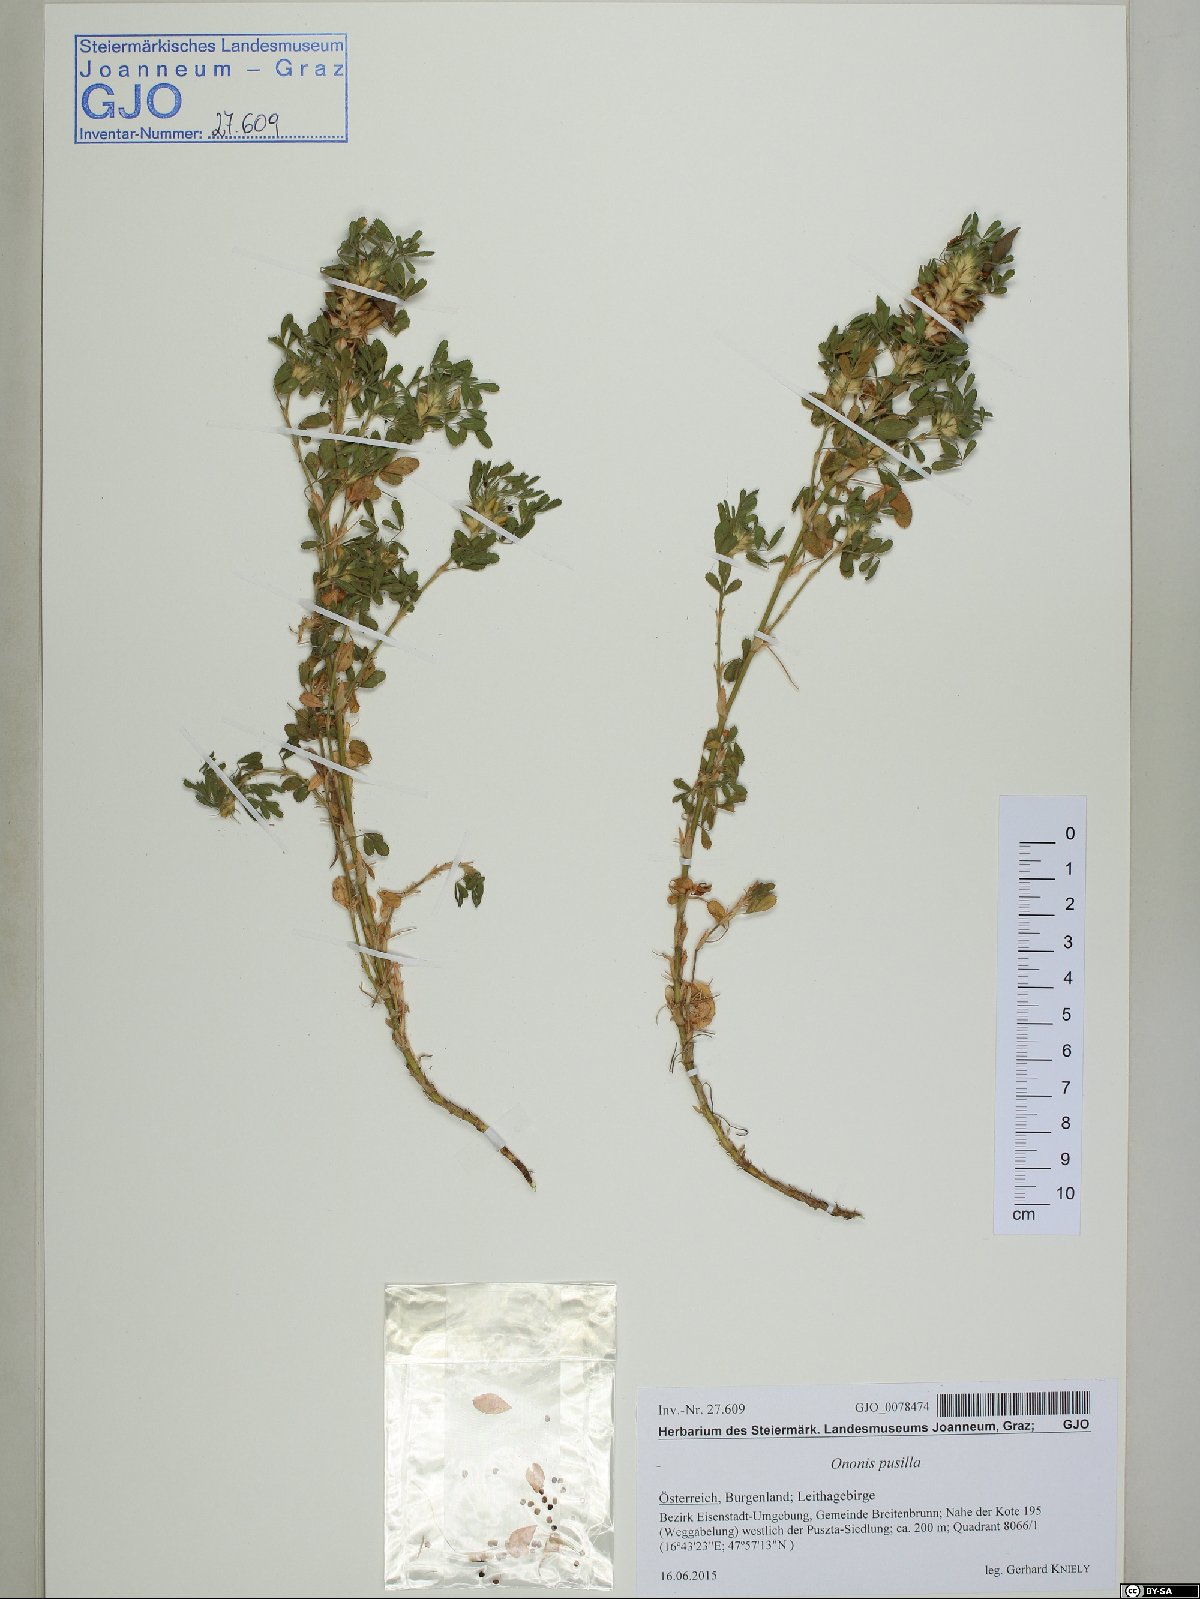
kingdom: Plantae
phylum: Tracheophyta
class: Magnoliopsida
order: Fabales
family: Fabaceae
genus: Ononis
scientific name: Ononis pusilla
